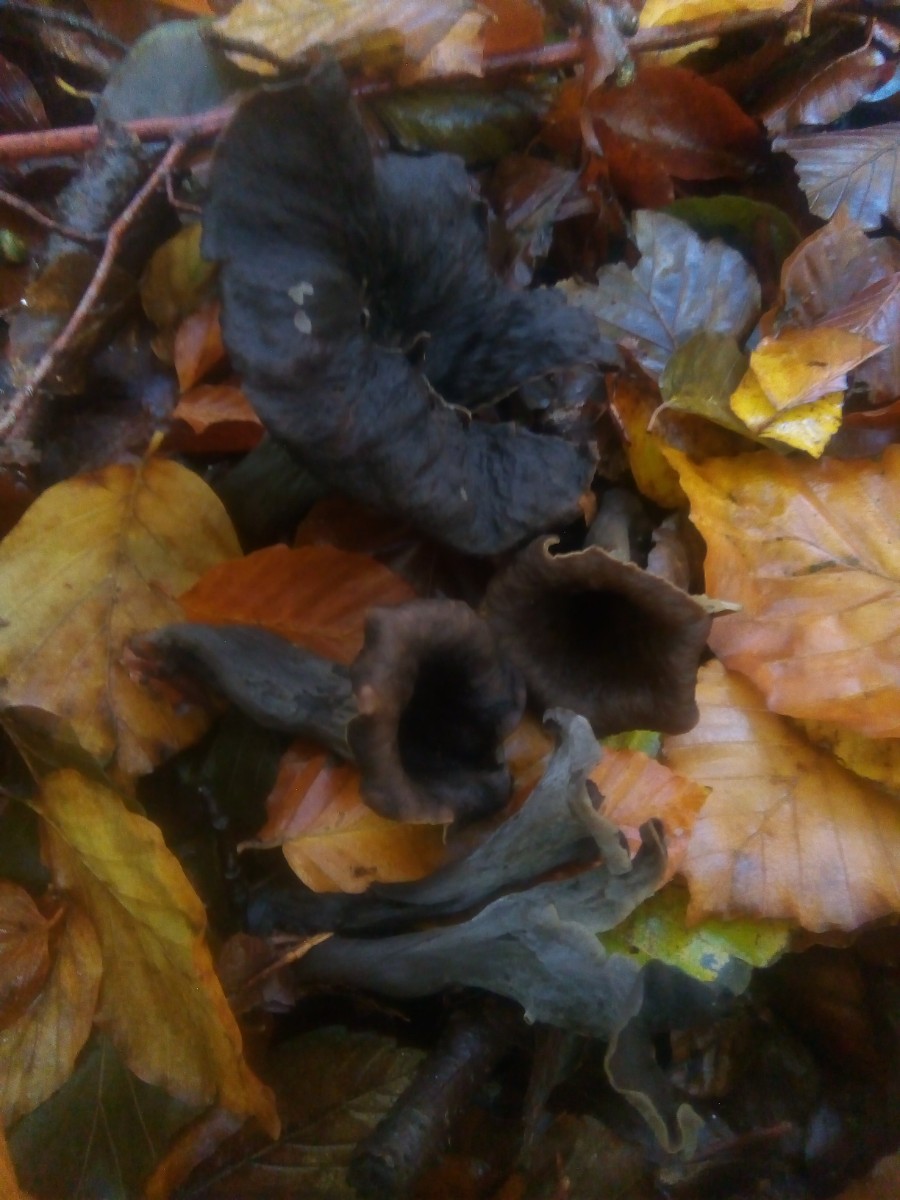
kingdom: Fungi
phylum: Basidiomycota
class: Agaricomycetes
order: Cantharellales
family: Hydnaceae
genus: Craterellus
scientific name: Craterellus cornucopioides
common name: trompetsvamp
